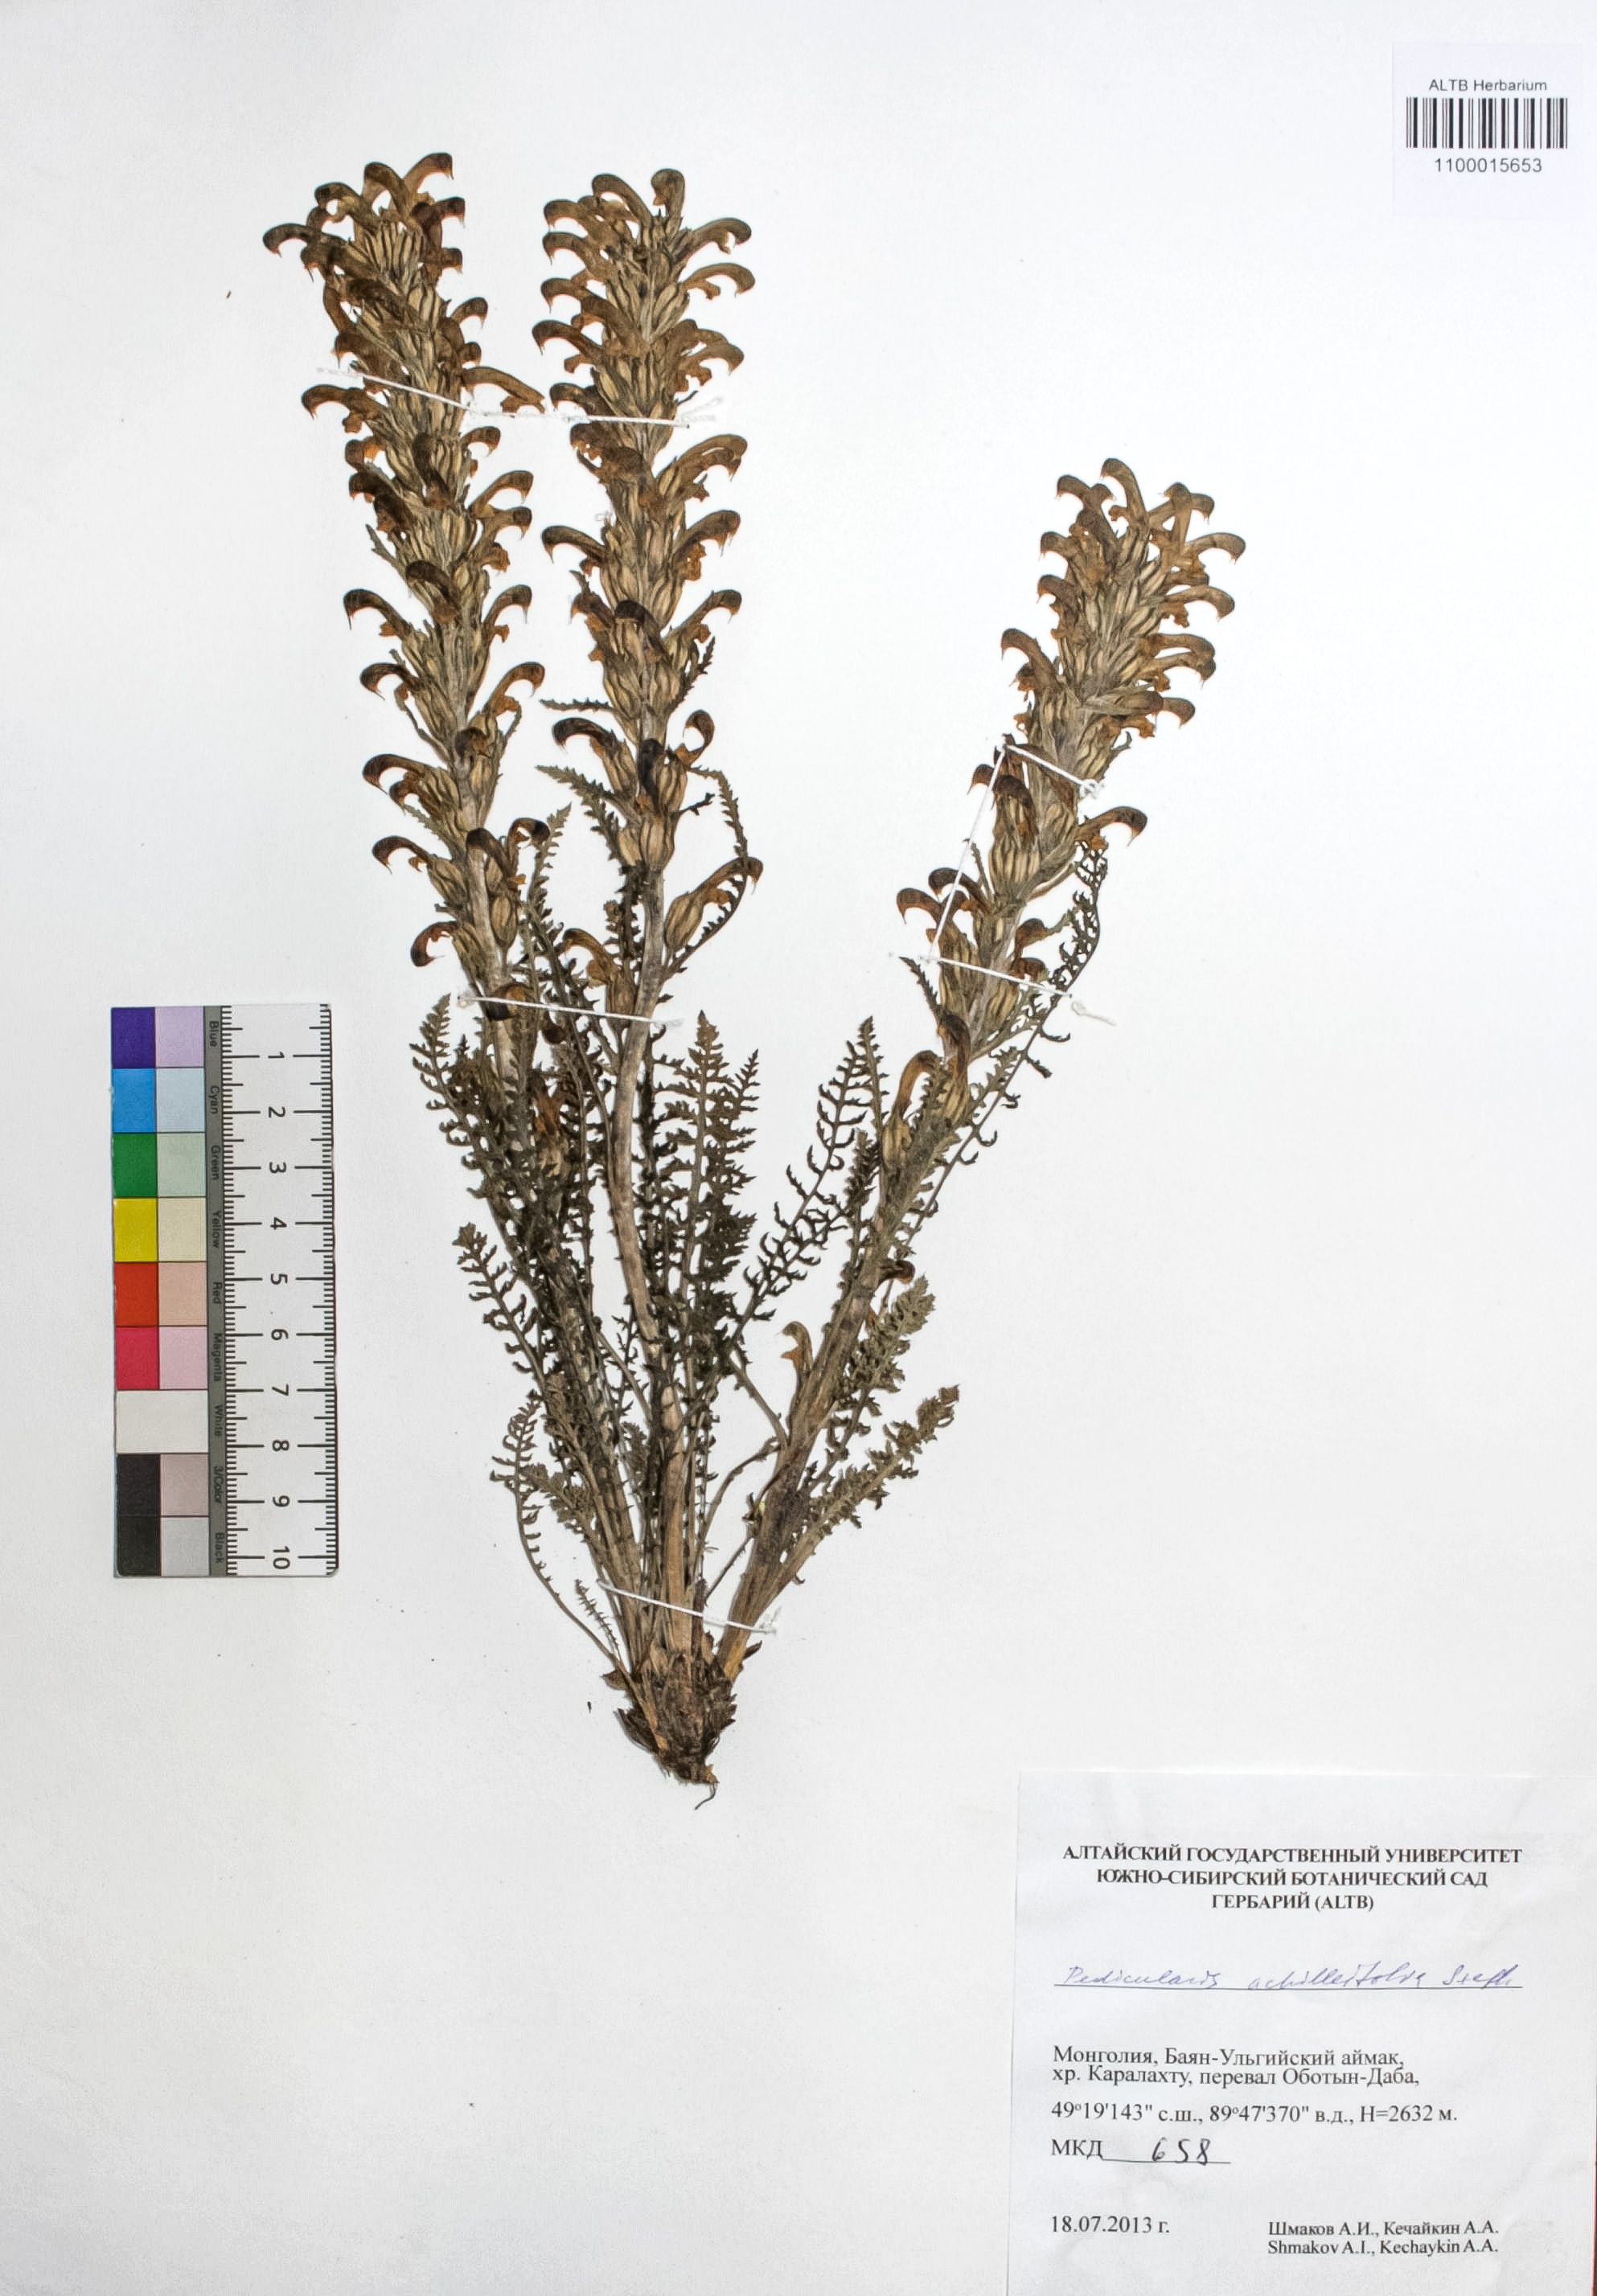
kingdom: Plantae
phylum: Tracheophyta
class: Magnoliopsida
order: Lamiales
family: Orobanchaceae
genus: Pedicularis
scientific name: Pedicularis achilleifolia
